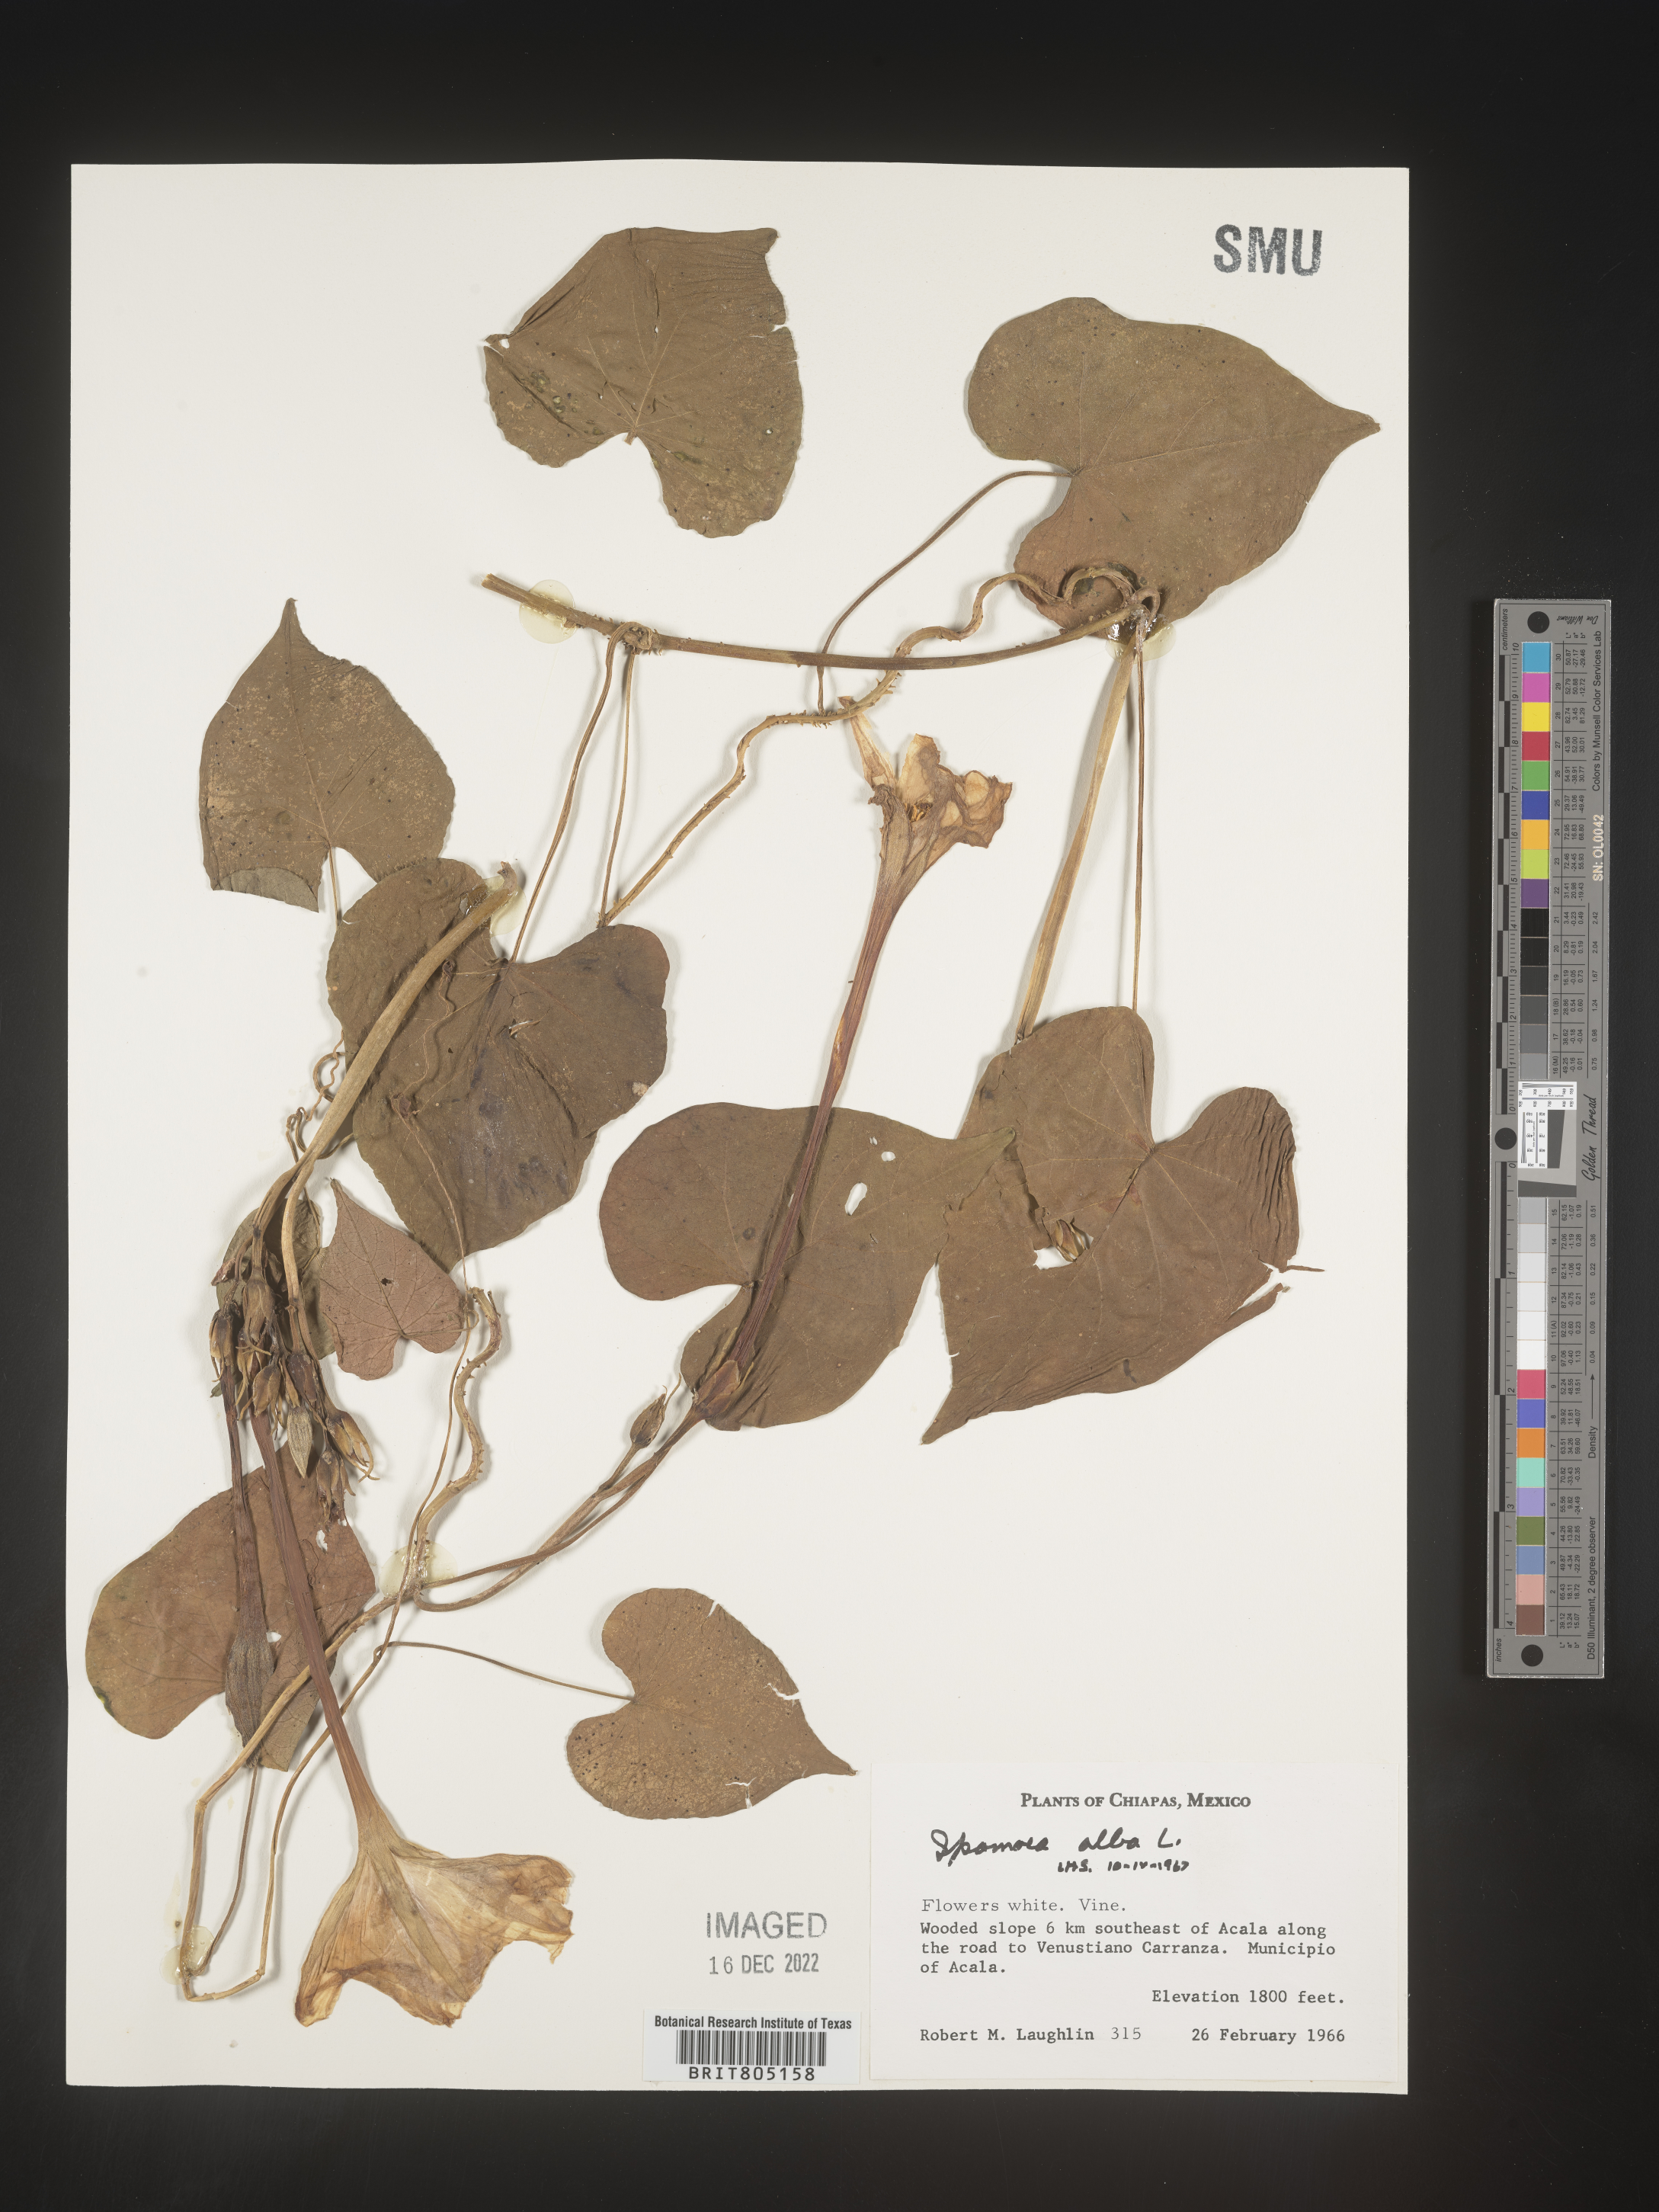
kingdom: Plantae
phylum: Tracheophyta
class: Magnoliopsida
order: Solanales
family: Convolvulaceae
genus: Ipomoea
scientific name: Ipomoea
